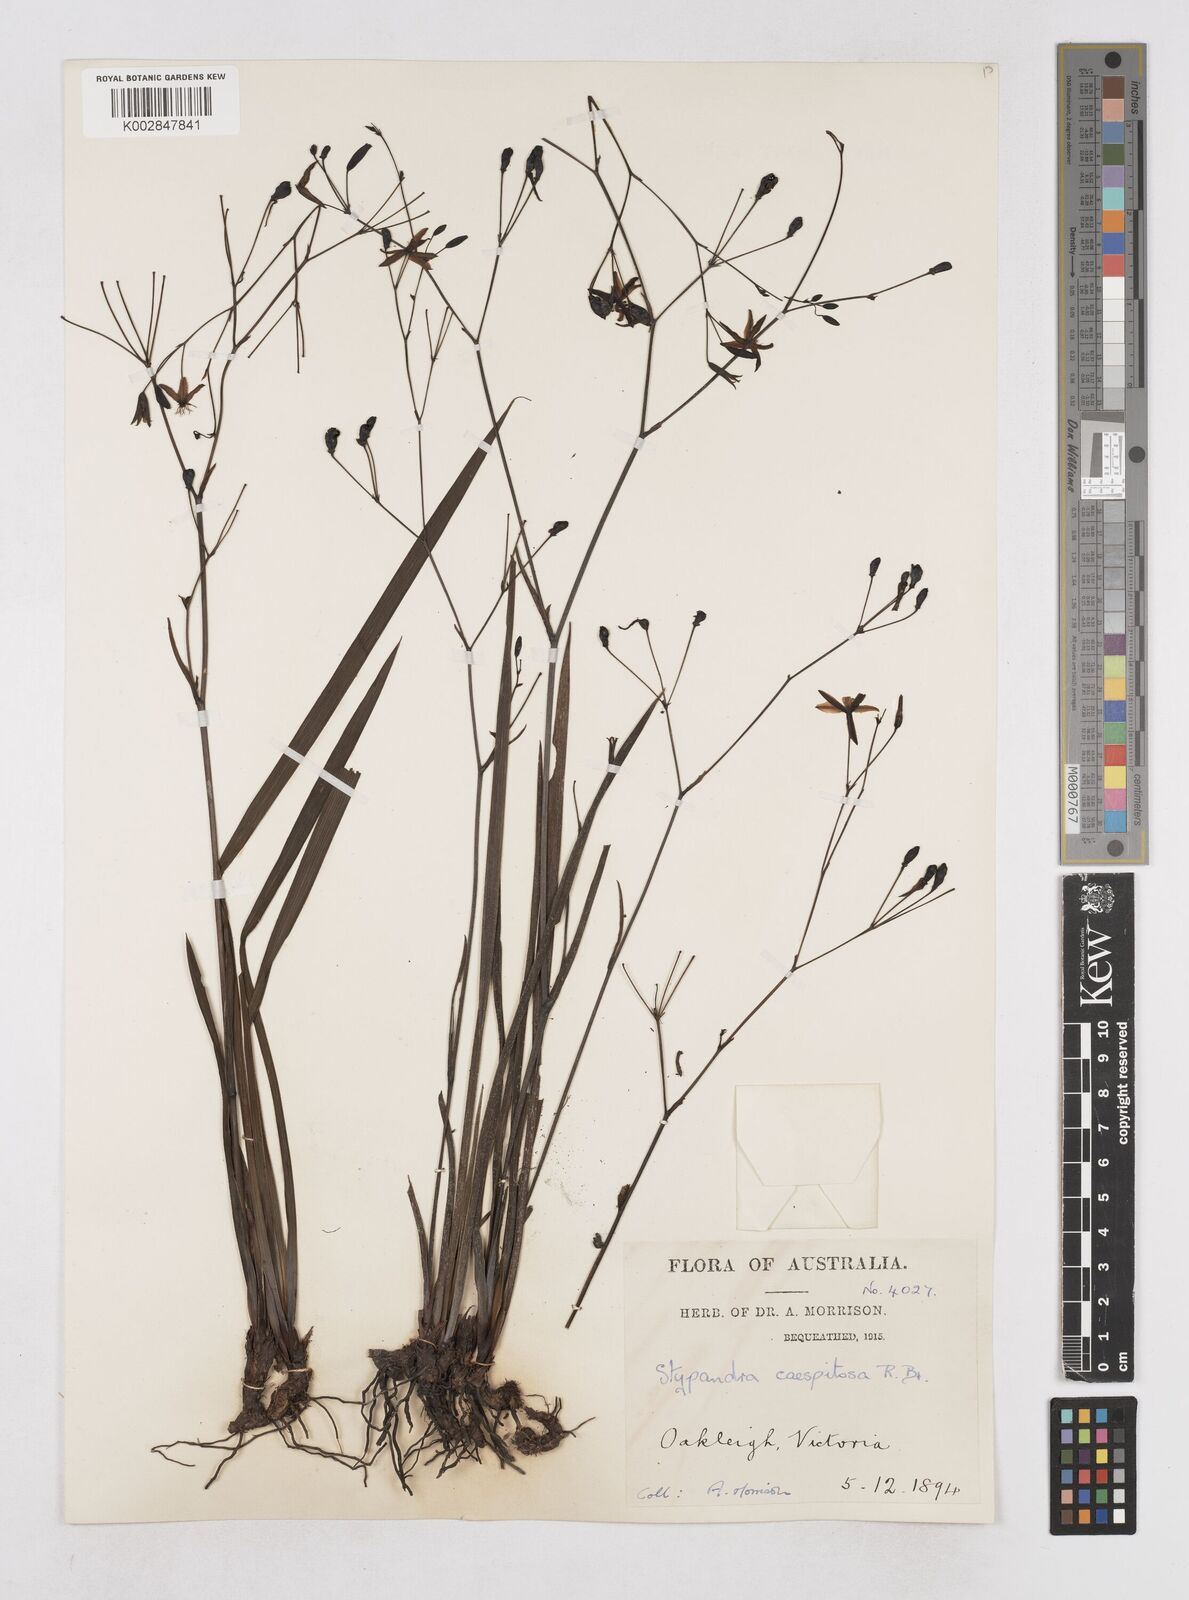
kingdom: Plantae
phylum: Tracheophyta
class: Liliopsida
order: Asparagales
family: Asphodelaceae
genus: Thelionema
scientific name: Thelionema caespitosum
